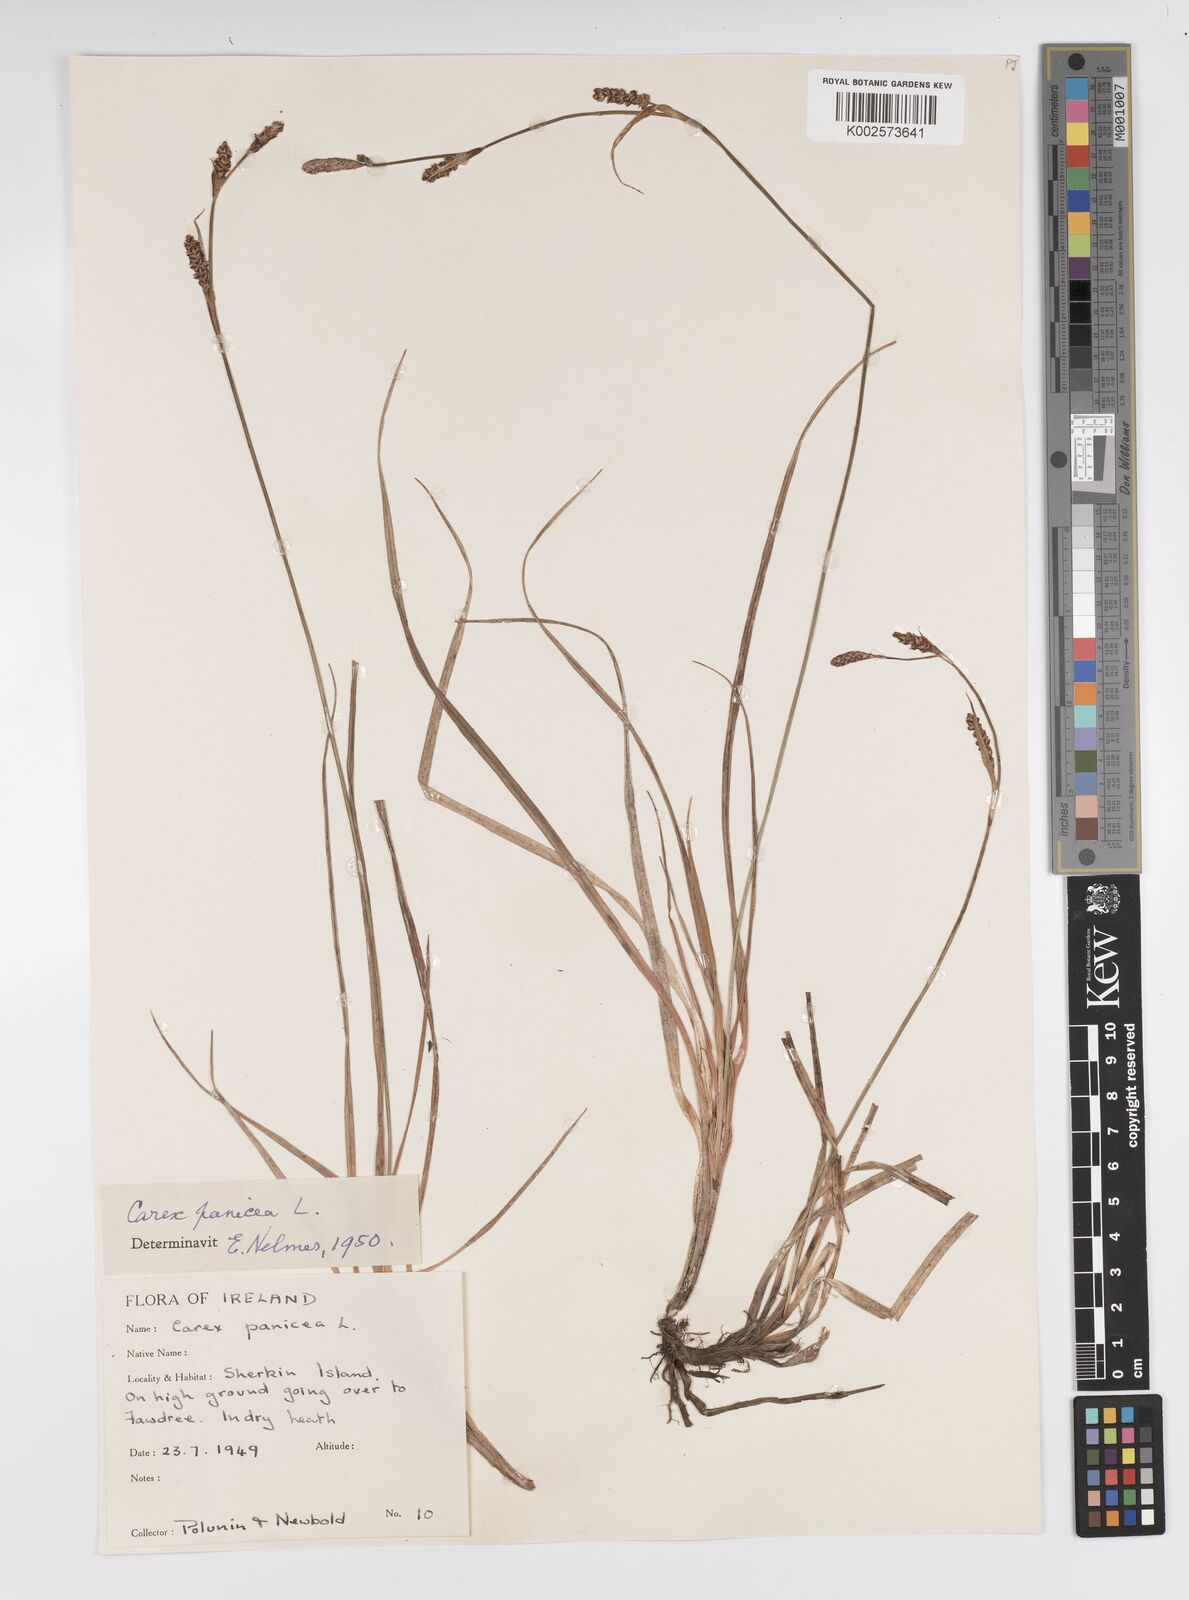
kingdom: Plantae
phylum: Tracheophyta
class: Liliopsida
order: Poales
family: Cyperaceae
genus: Carex
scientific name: Carex panicea
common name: Carnation sedge
